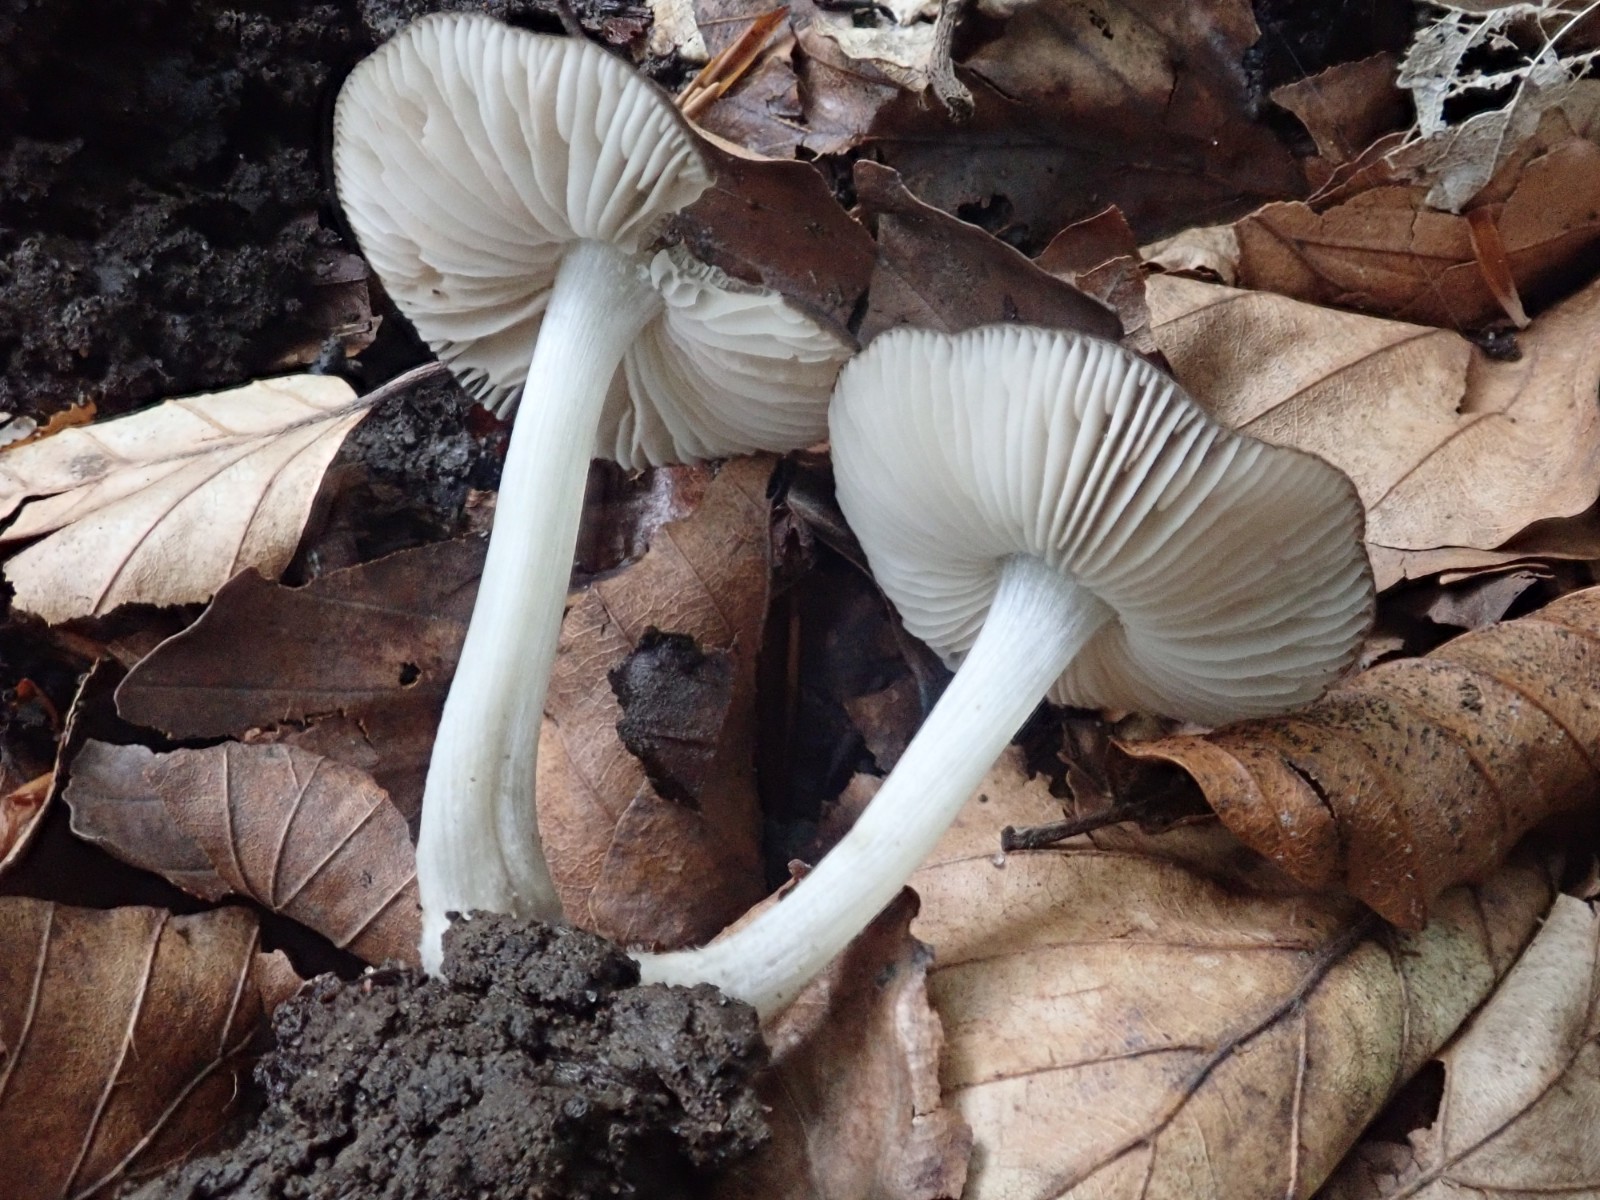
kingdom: Fungi
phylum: Basidiomycota
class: Agaricomycetes
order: Agaricales
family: Pluteaceae
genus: Pluteus
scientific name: Pluteus phlebophorus
